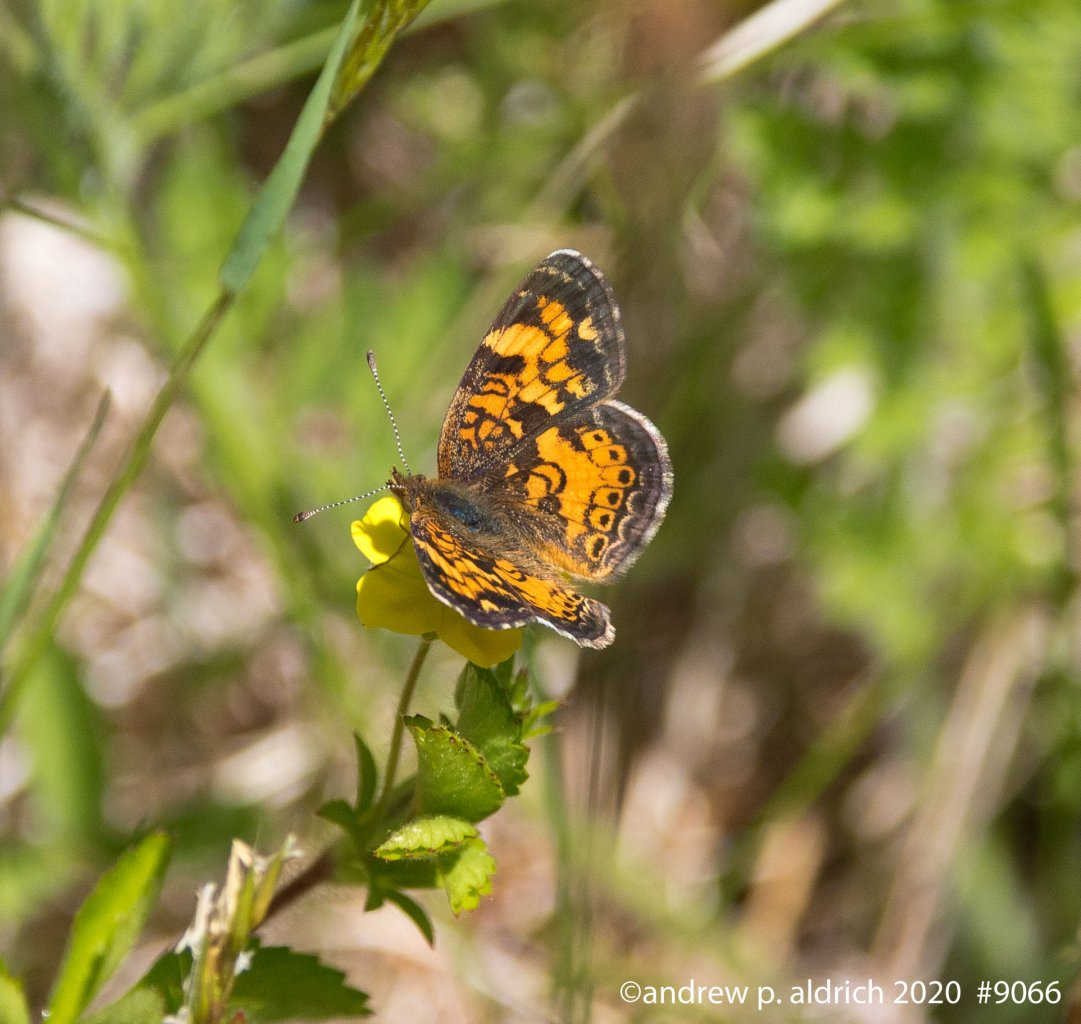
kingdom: Animalia
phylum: Arthropoda
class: Insecta
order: Lepidoptera
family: Nymphalidae
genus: Phyciodes
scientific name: Phyciodes
